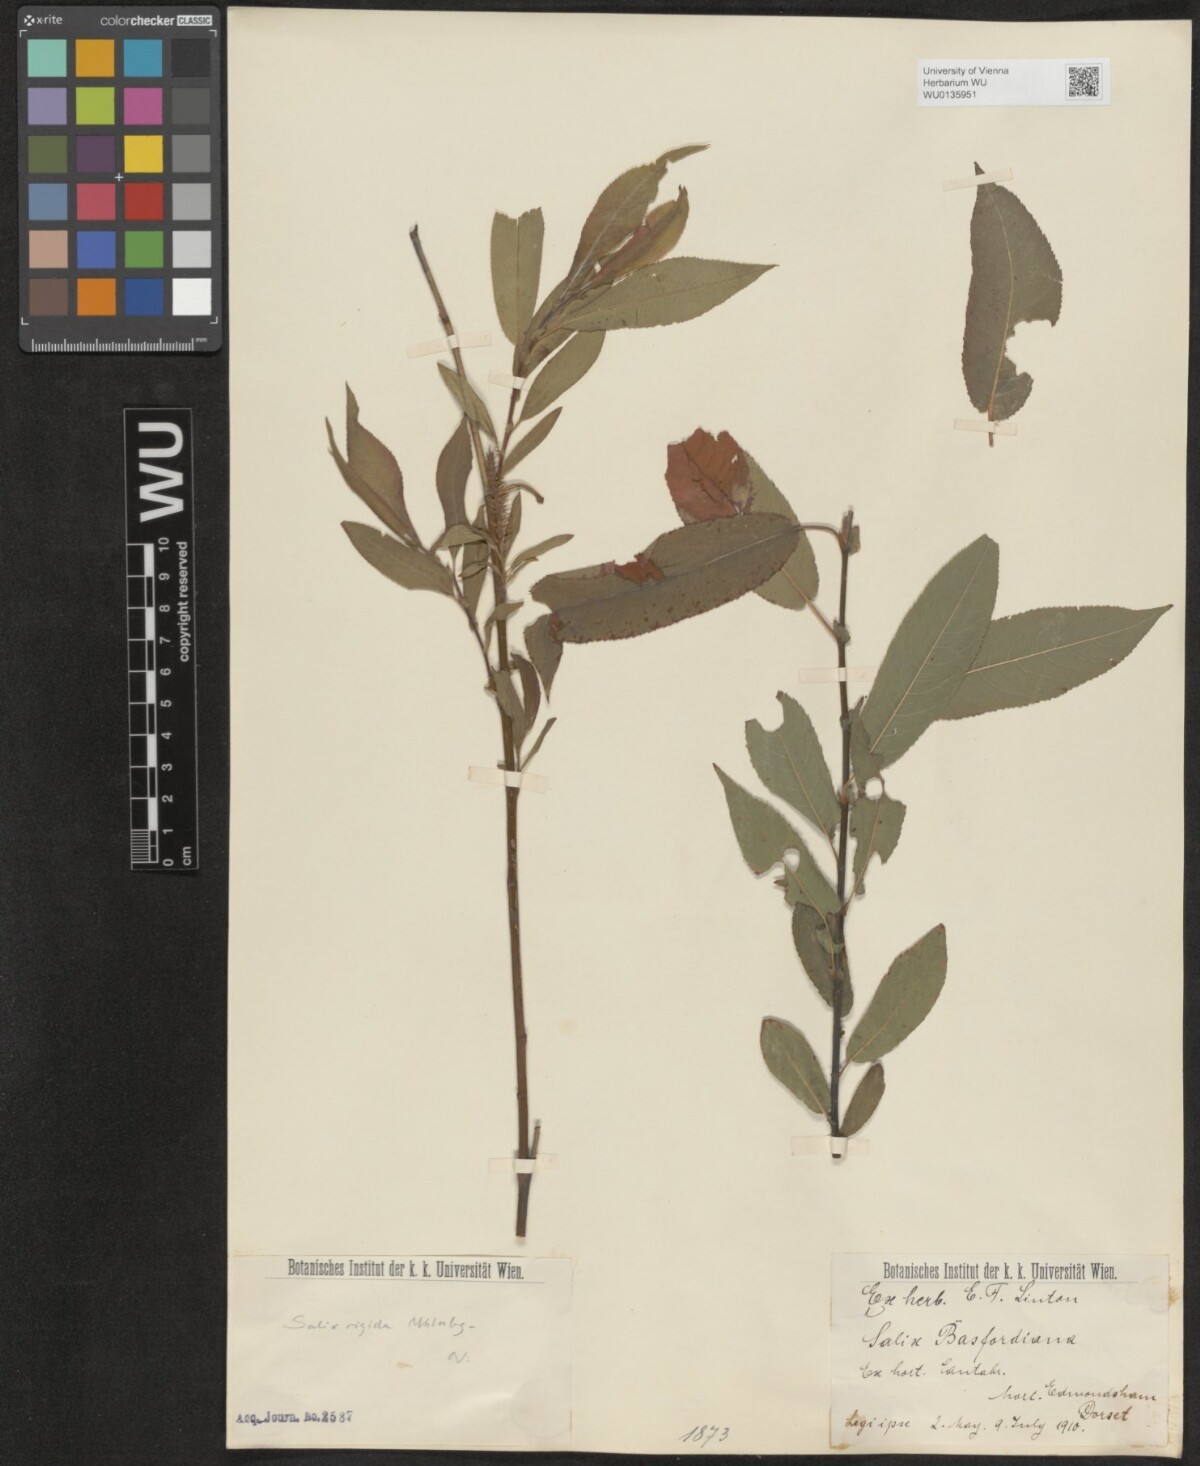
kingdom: Plantae
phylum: Tracheophyta
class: Magnoliopsida
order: Malpighiales
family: Salicaceae
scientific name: Salicaceae
